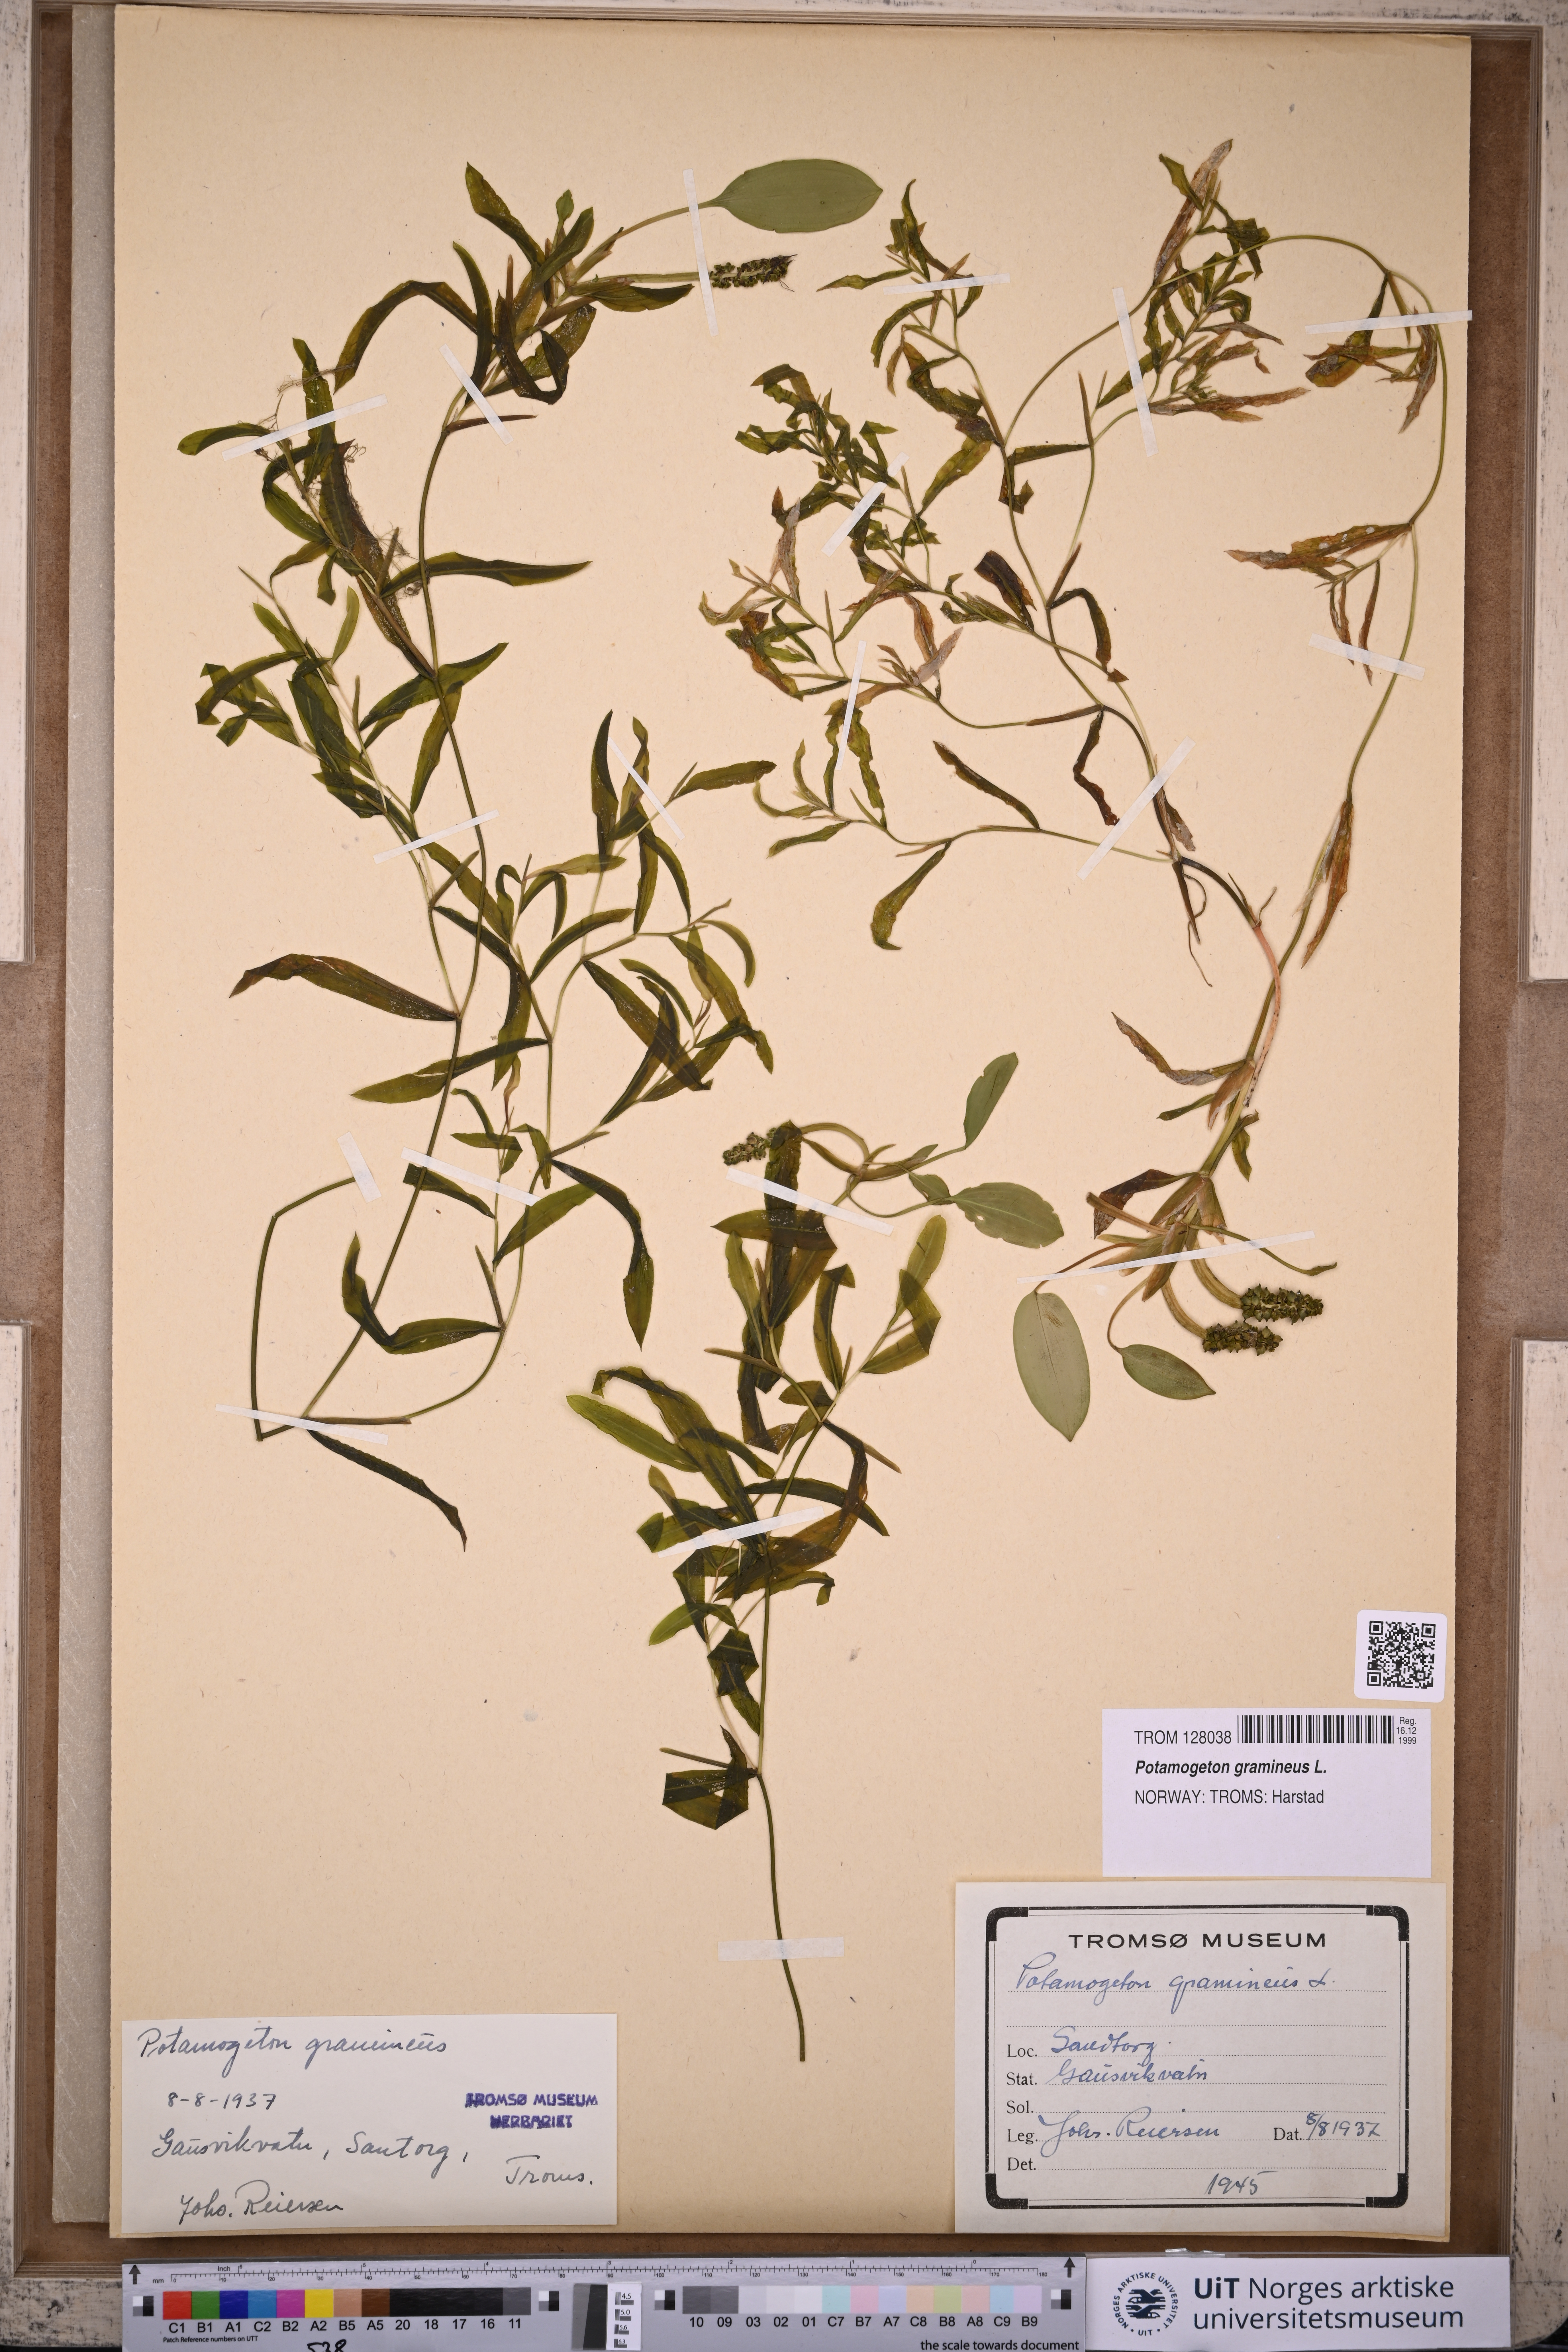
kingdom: Plantae
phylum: Tracheophyta
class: Liliopsida
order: Alismatales
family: Potamogetonaceae
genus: Potamogeton
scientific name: Potamogeton gramineus
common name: Various-leaved pondweed
